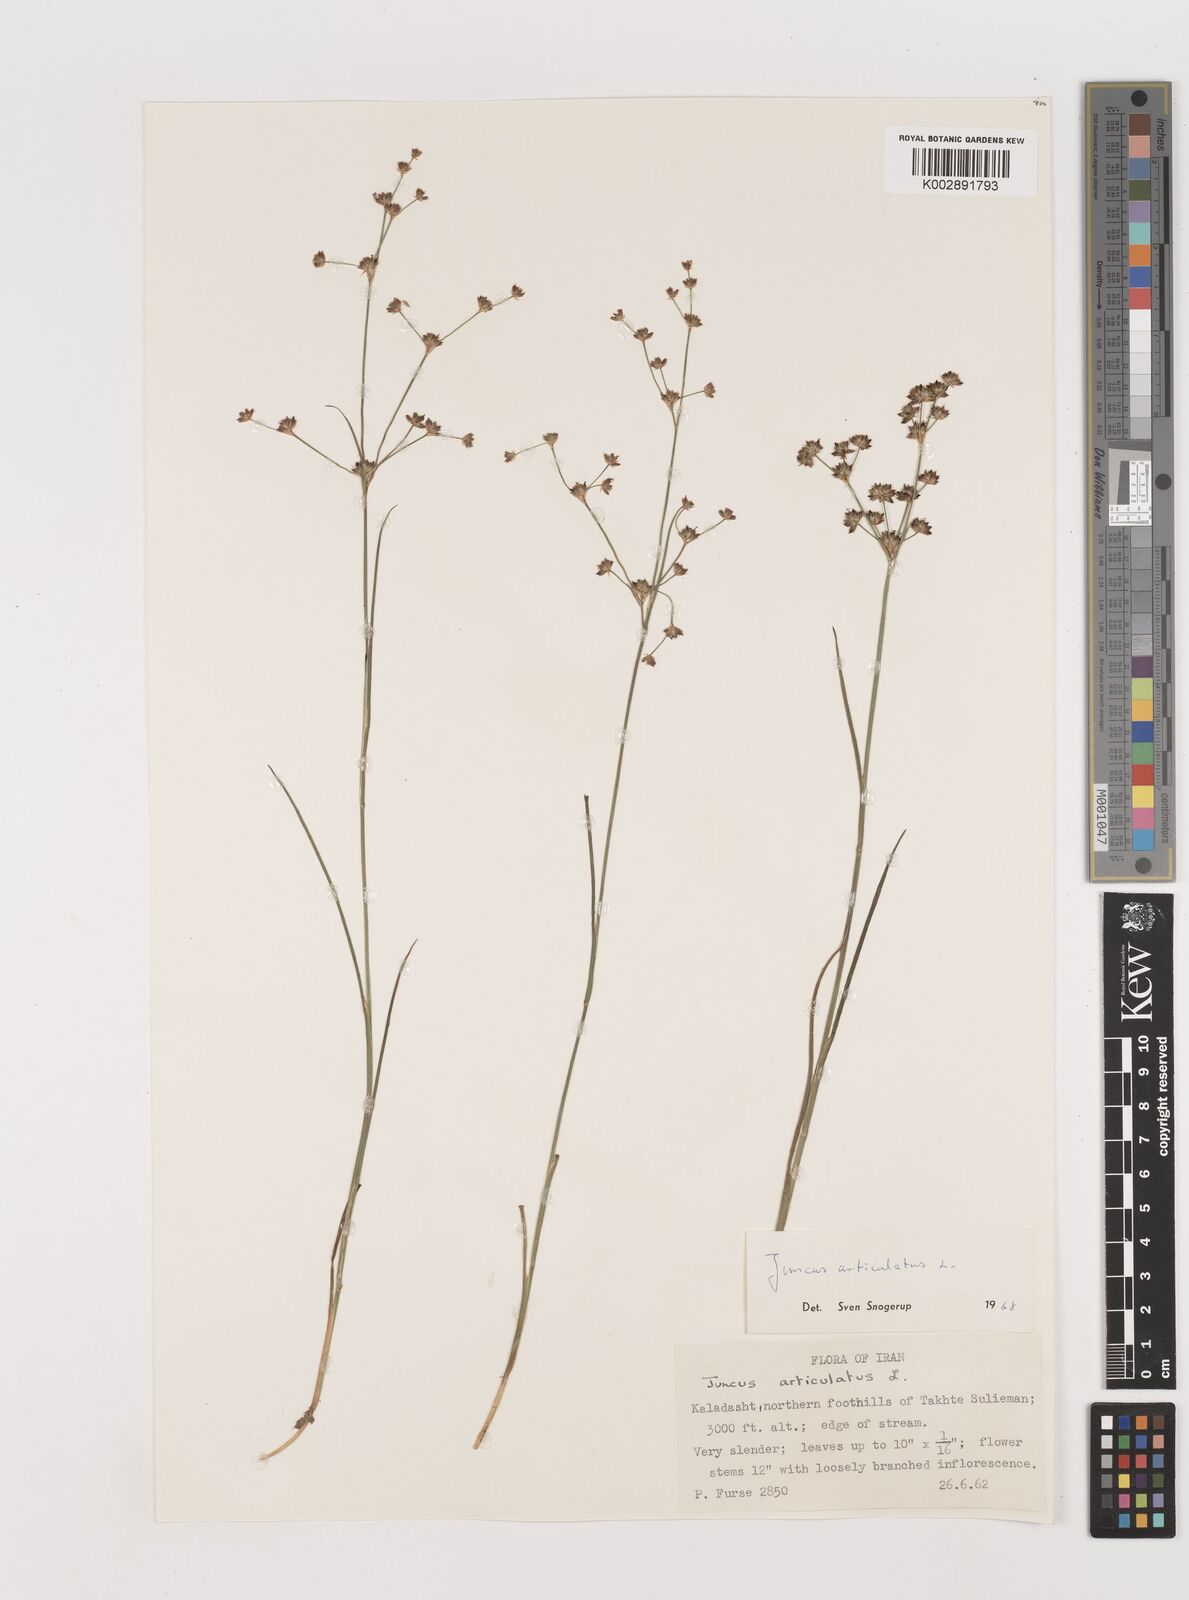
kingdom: Plantae
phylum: Tracheophyta
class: Liliopsida
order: Poales
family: Juncaceae
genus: Juncus
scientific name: Juncus articulatus
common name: Jointed rush
